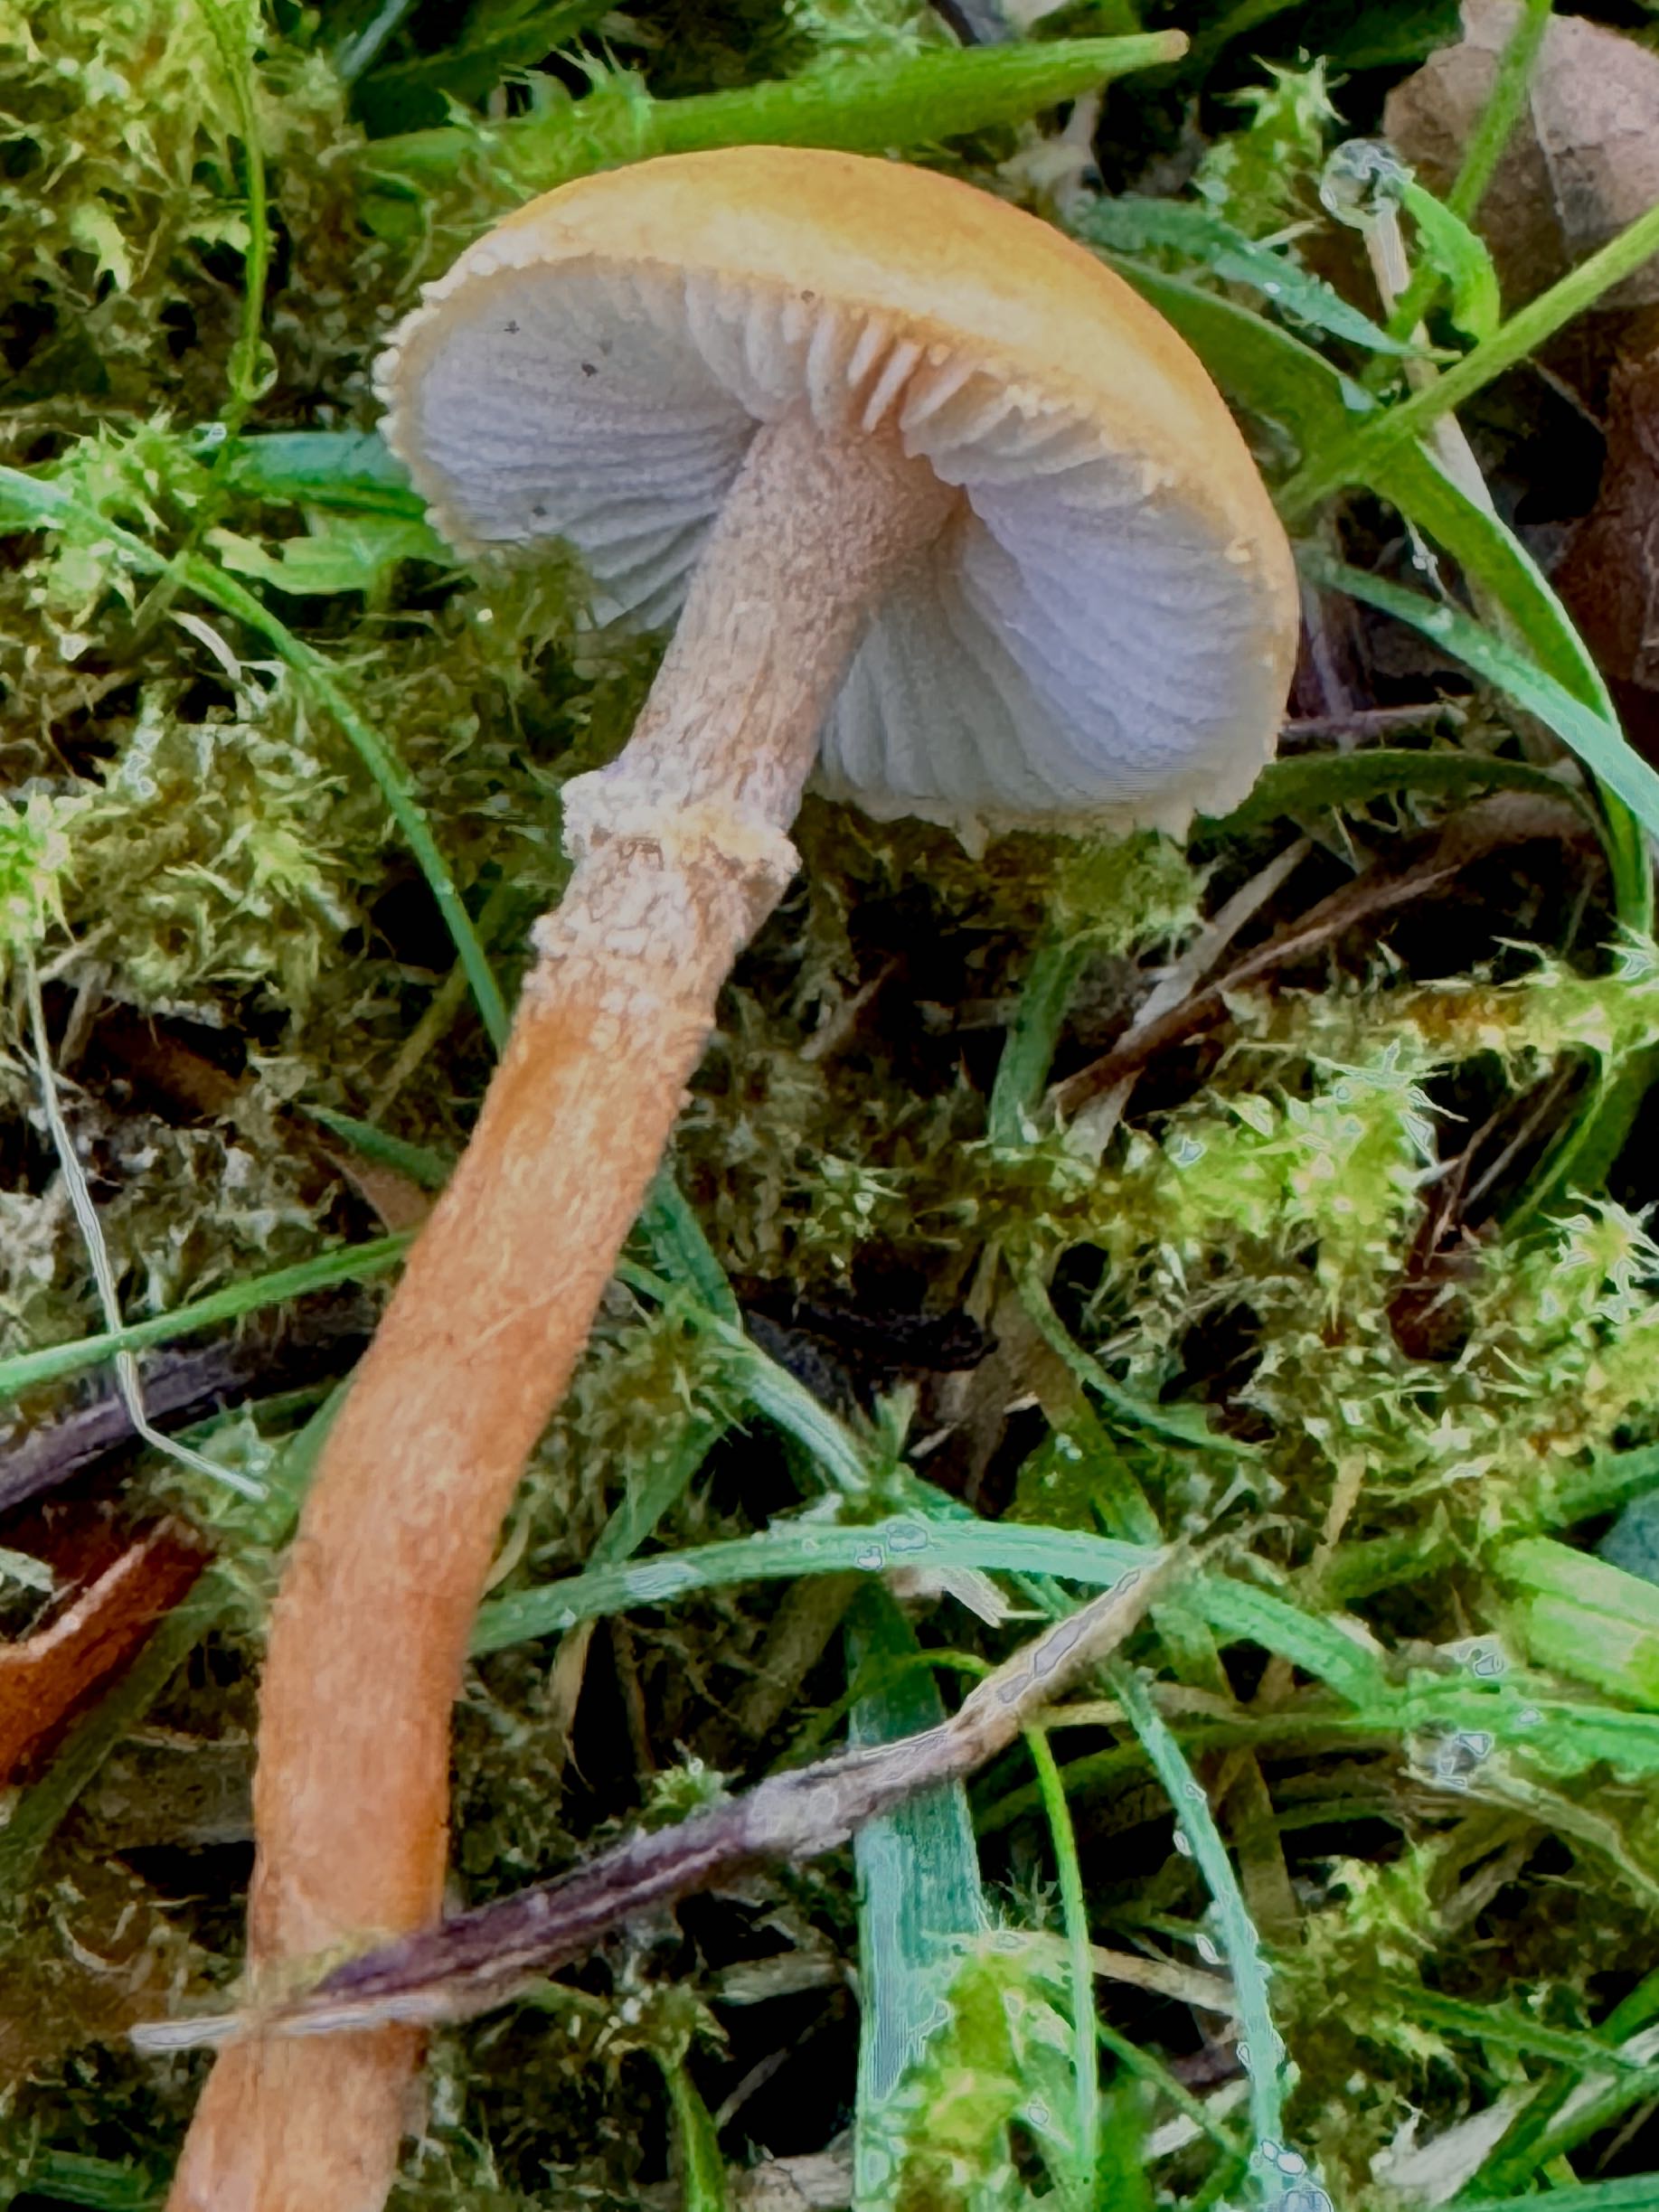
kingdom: Fungi
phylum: Basidiomycota
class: Agaricomycetes
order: Agaricales
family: Tricholomataceae
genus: Cystoderma
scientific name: Cystoderma amianthinum
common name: okkergul grynhat
